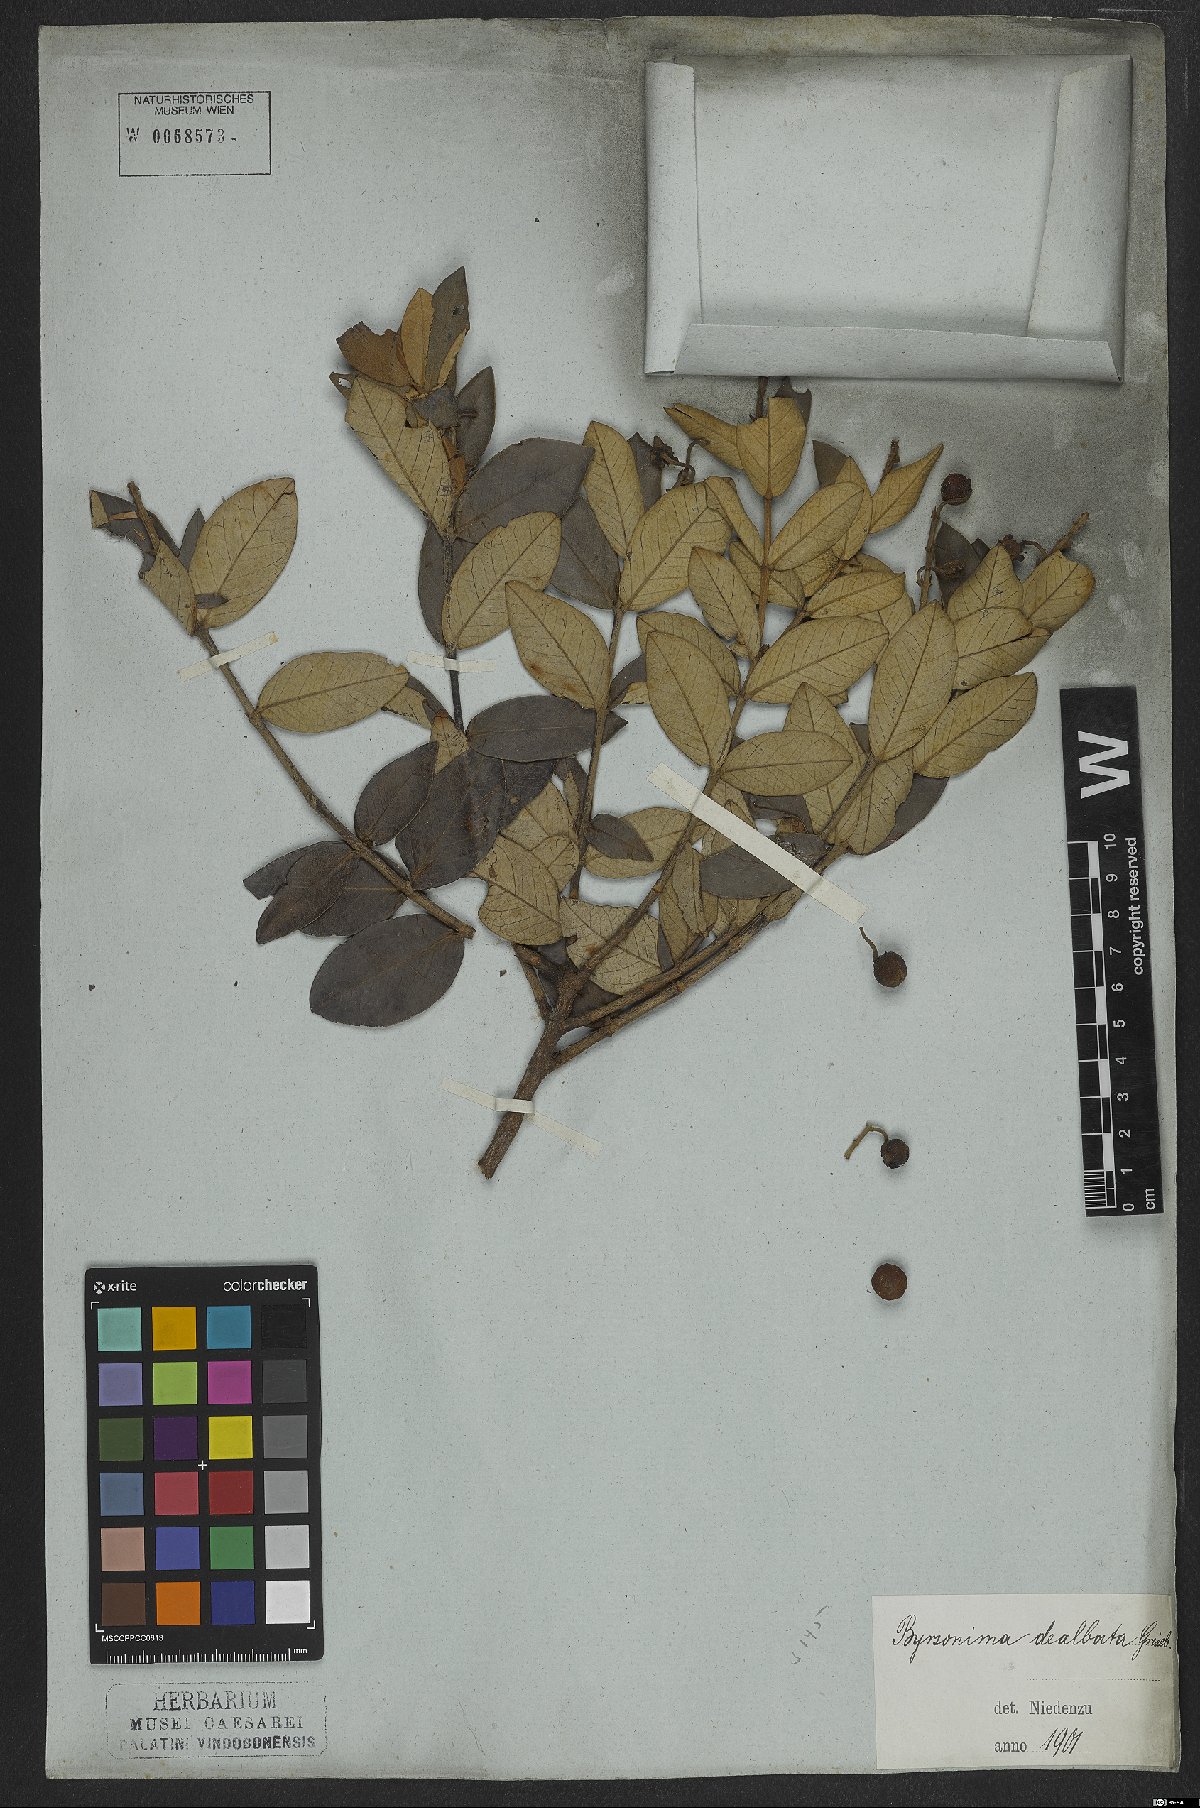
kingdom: Plantae
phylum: Tracheophyta
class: Magnoliopsida
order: Malpighiales
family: Malpighiaceae
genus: Byrsonima
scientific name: Byrsonima dealbata
